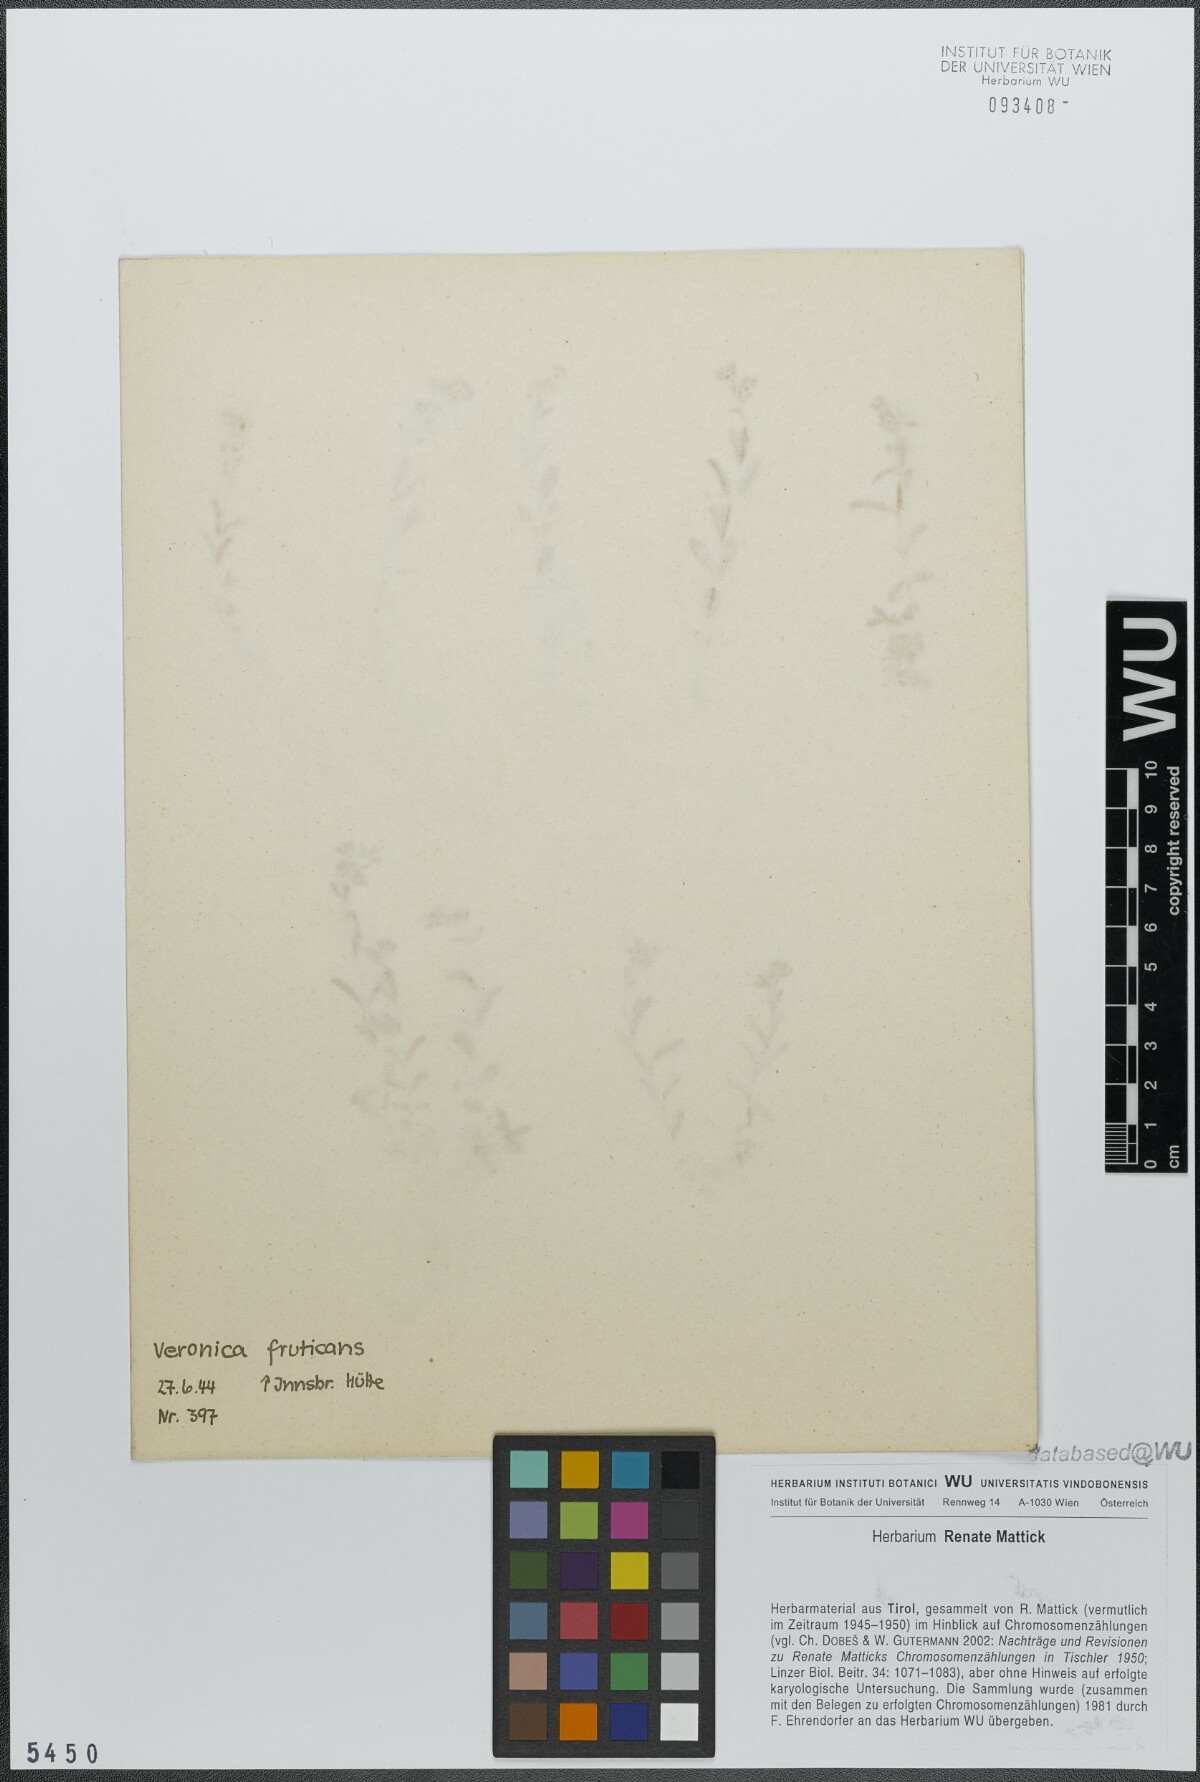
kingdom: Plantae
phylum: Tracheophyta
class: Magnoliopsida
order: Lamiales
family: Plantaginaceae
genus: Veronica
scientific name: Veronica fruticans
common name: Rock speedwell
